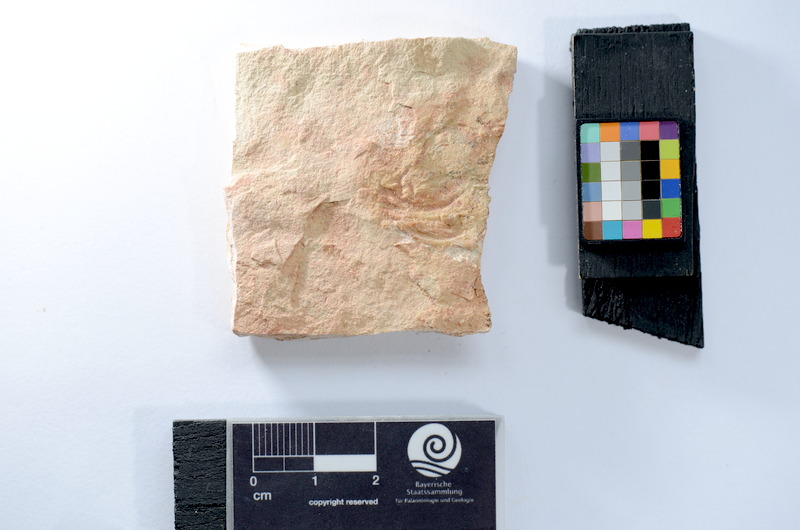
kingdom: Animalia
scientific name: Animalia
